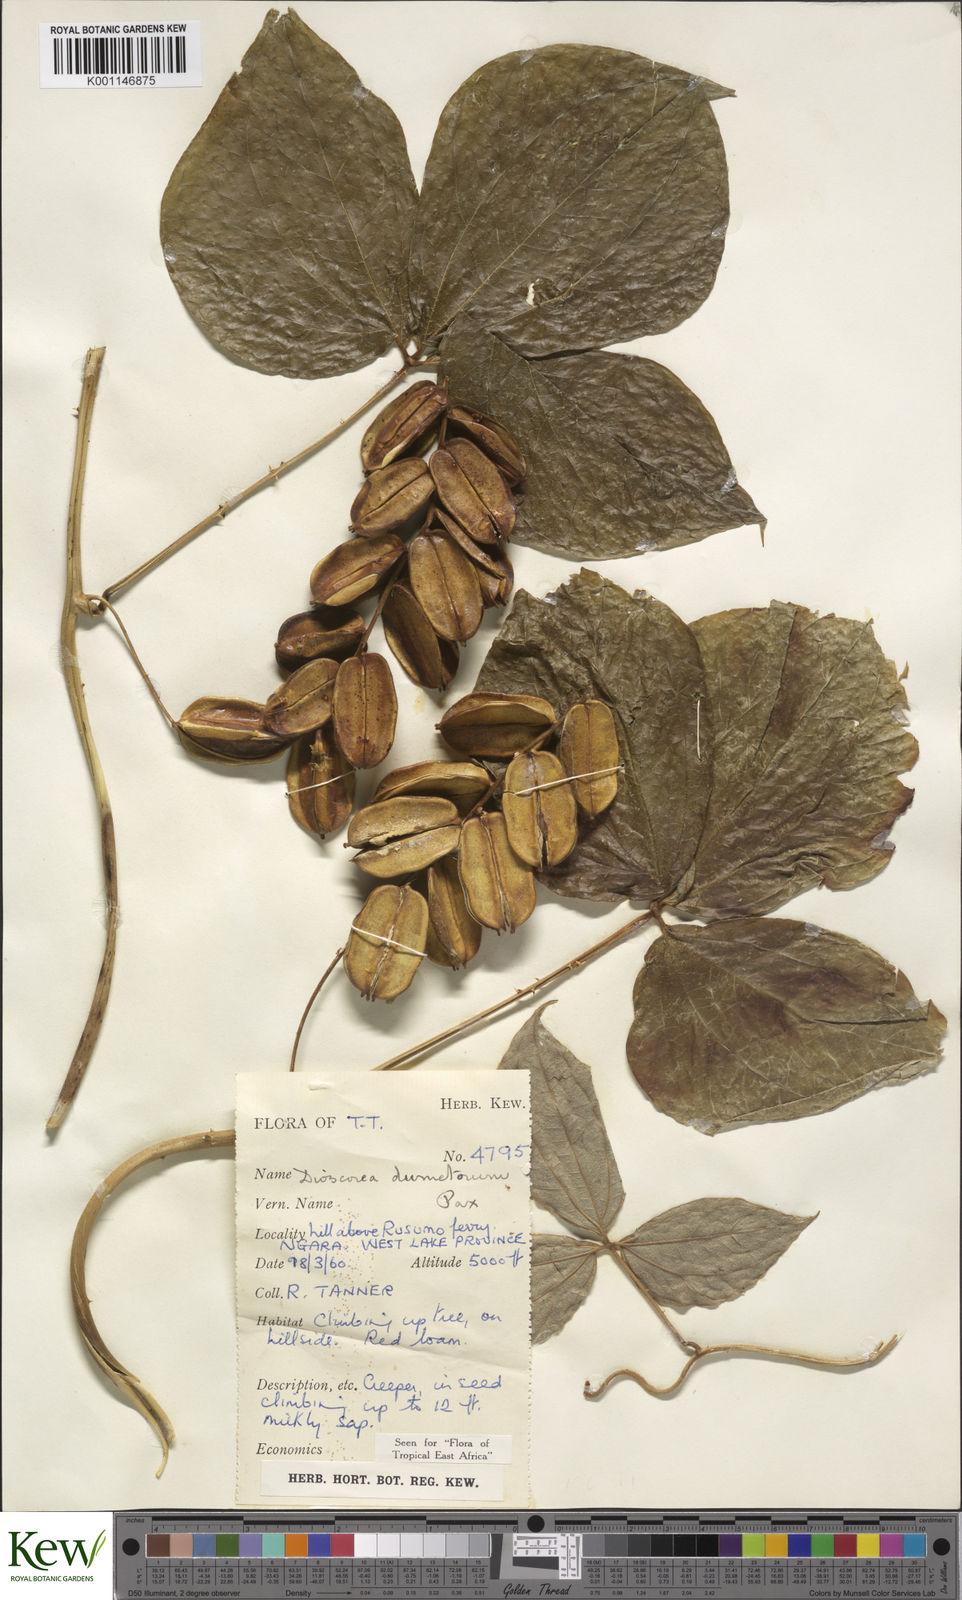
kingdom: Plantae
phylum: Tracheophyta
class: Liliopsida
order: Dioscoreales
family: Dioscoreaceae
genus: Dioscorea
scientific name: Dioscorea dumetorum
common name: African bitter yam
